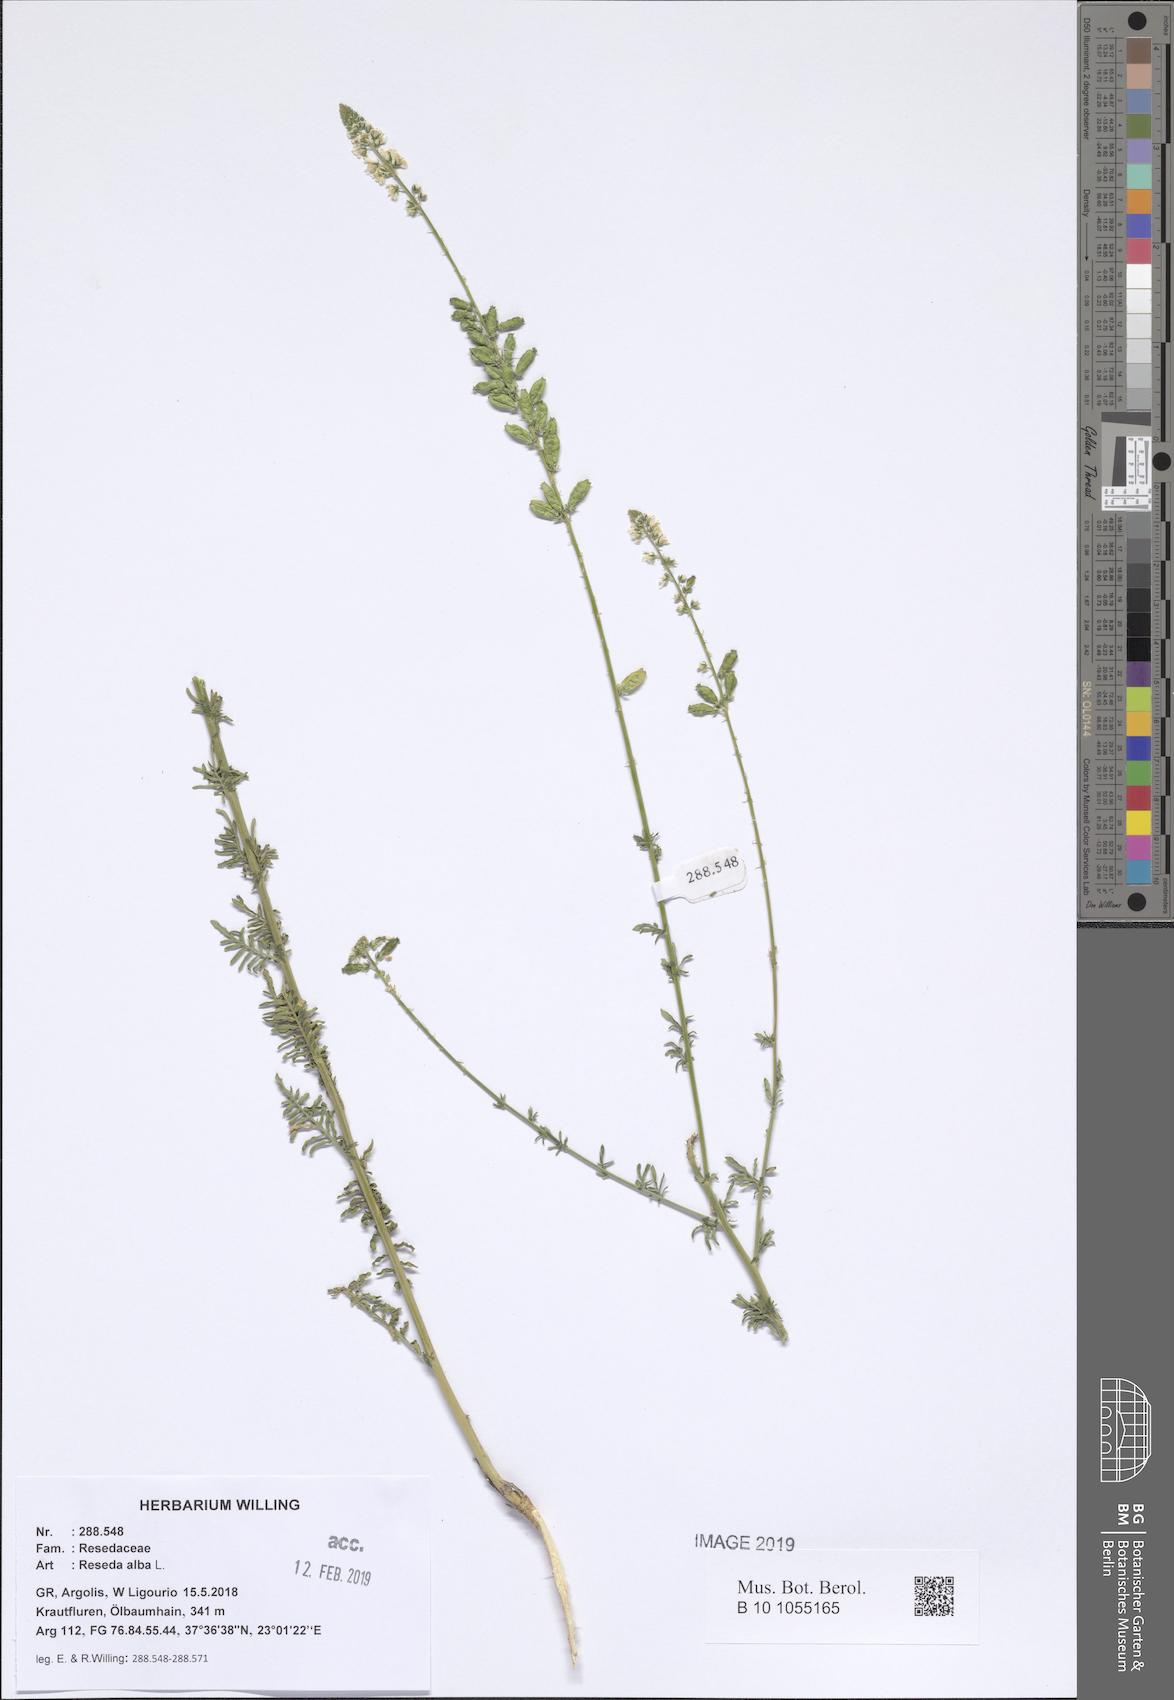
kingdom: Plantae
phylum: Tracheophyta
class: Magnoliopsida
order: Brassicales
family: Resedaceae
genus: Reseda
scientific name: Reseda alba
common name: White mignonette
